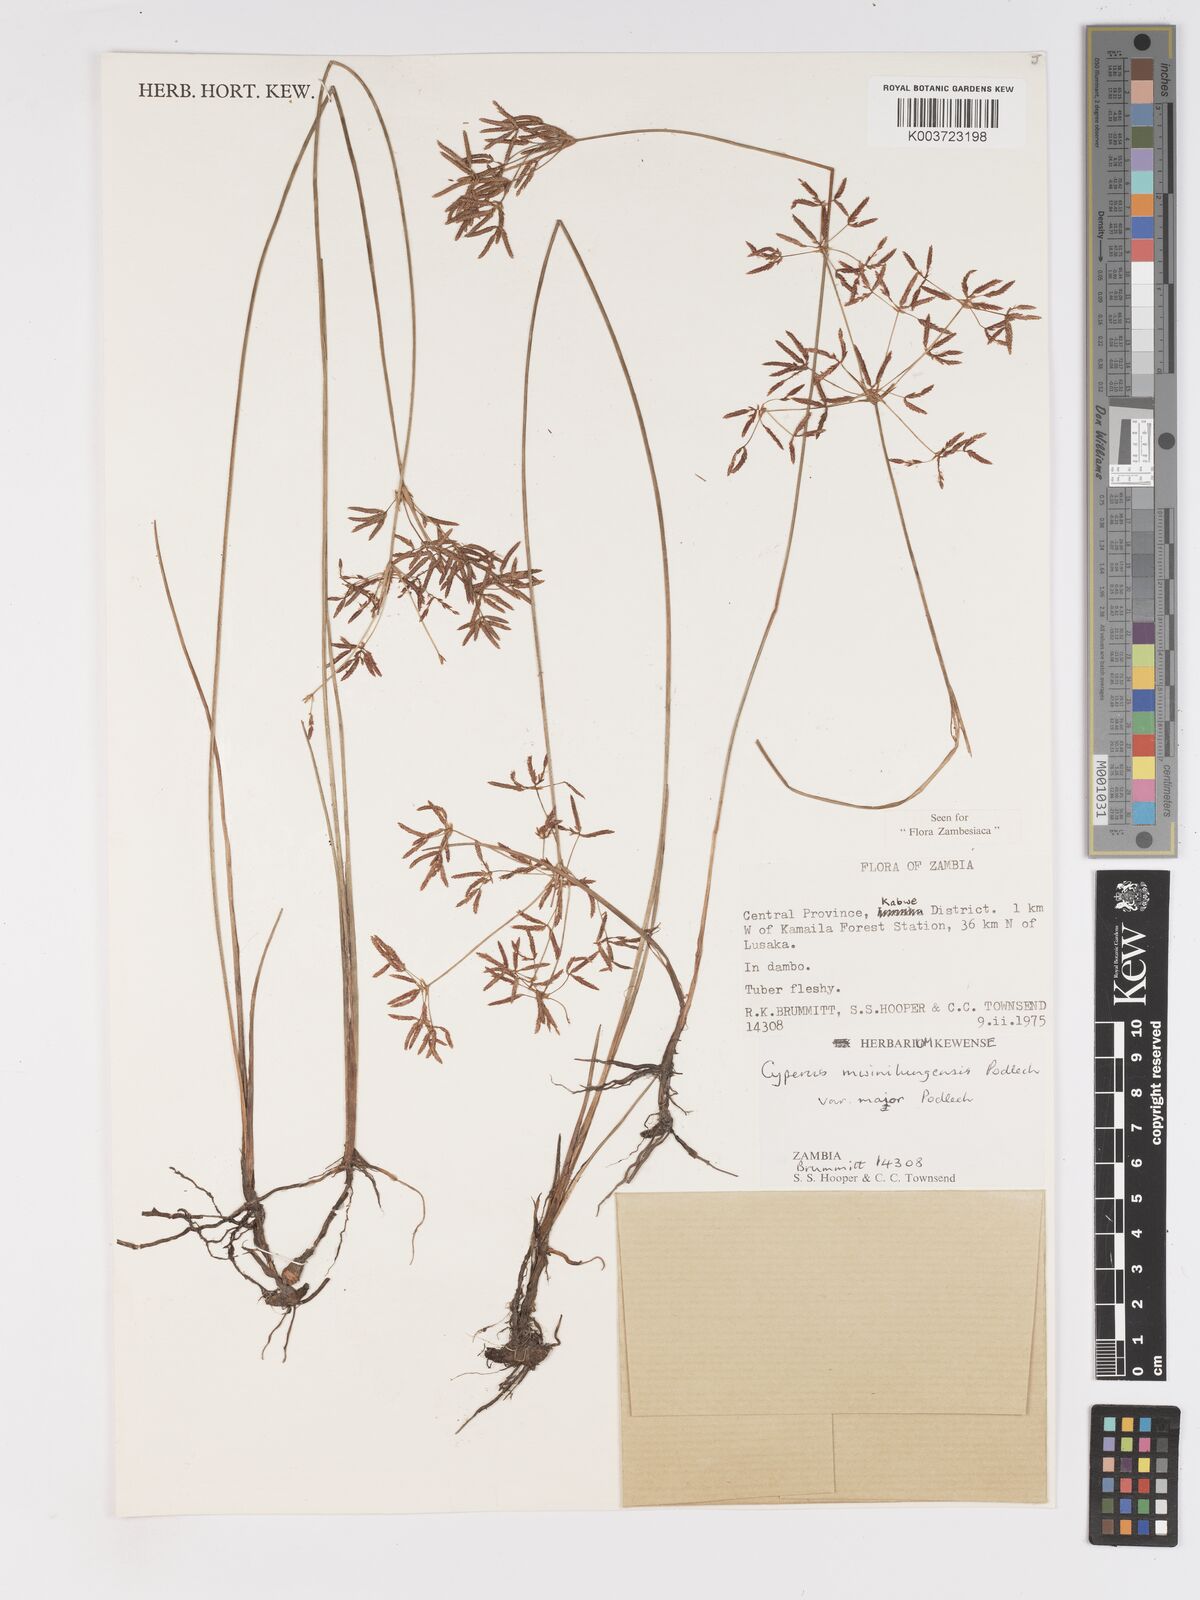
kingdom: Plantae
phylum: Tracheophyta
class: Liliopsida
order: Poales
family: Cyperaceae
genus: Cyperus
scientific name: Cyperus mwinilungensis
